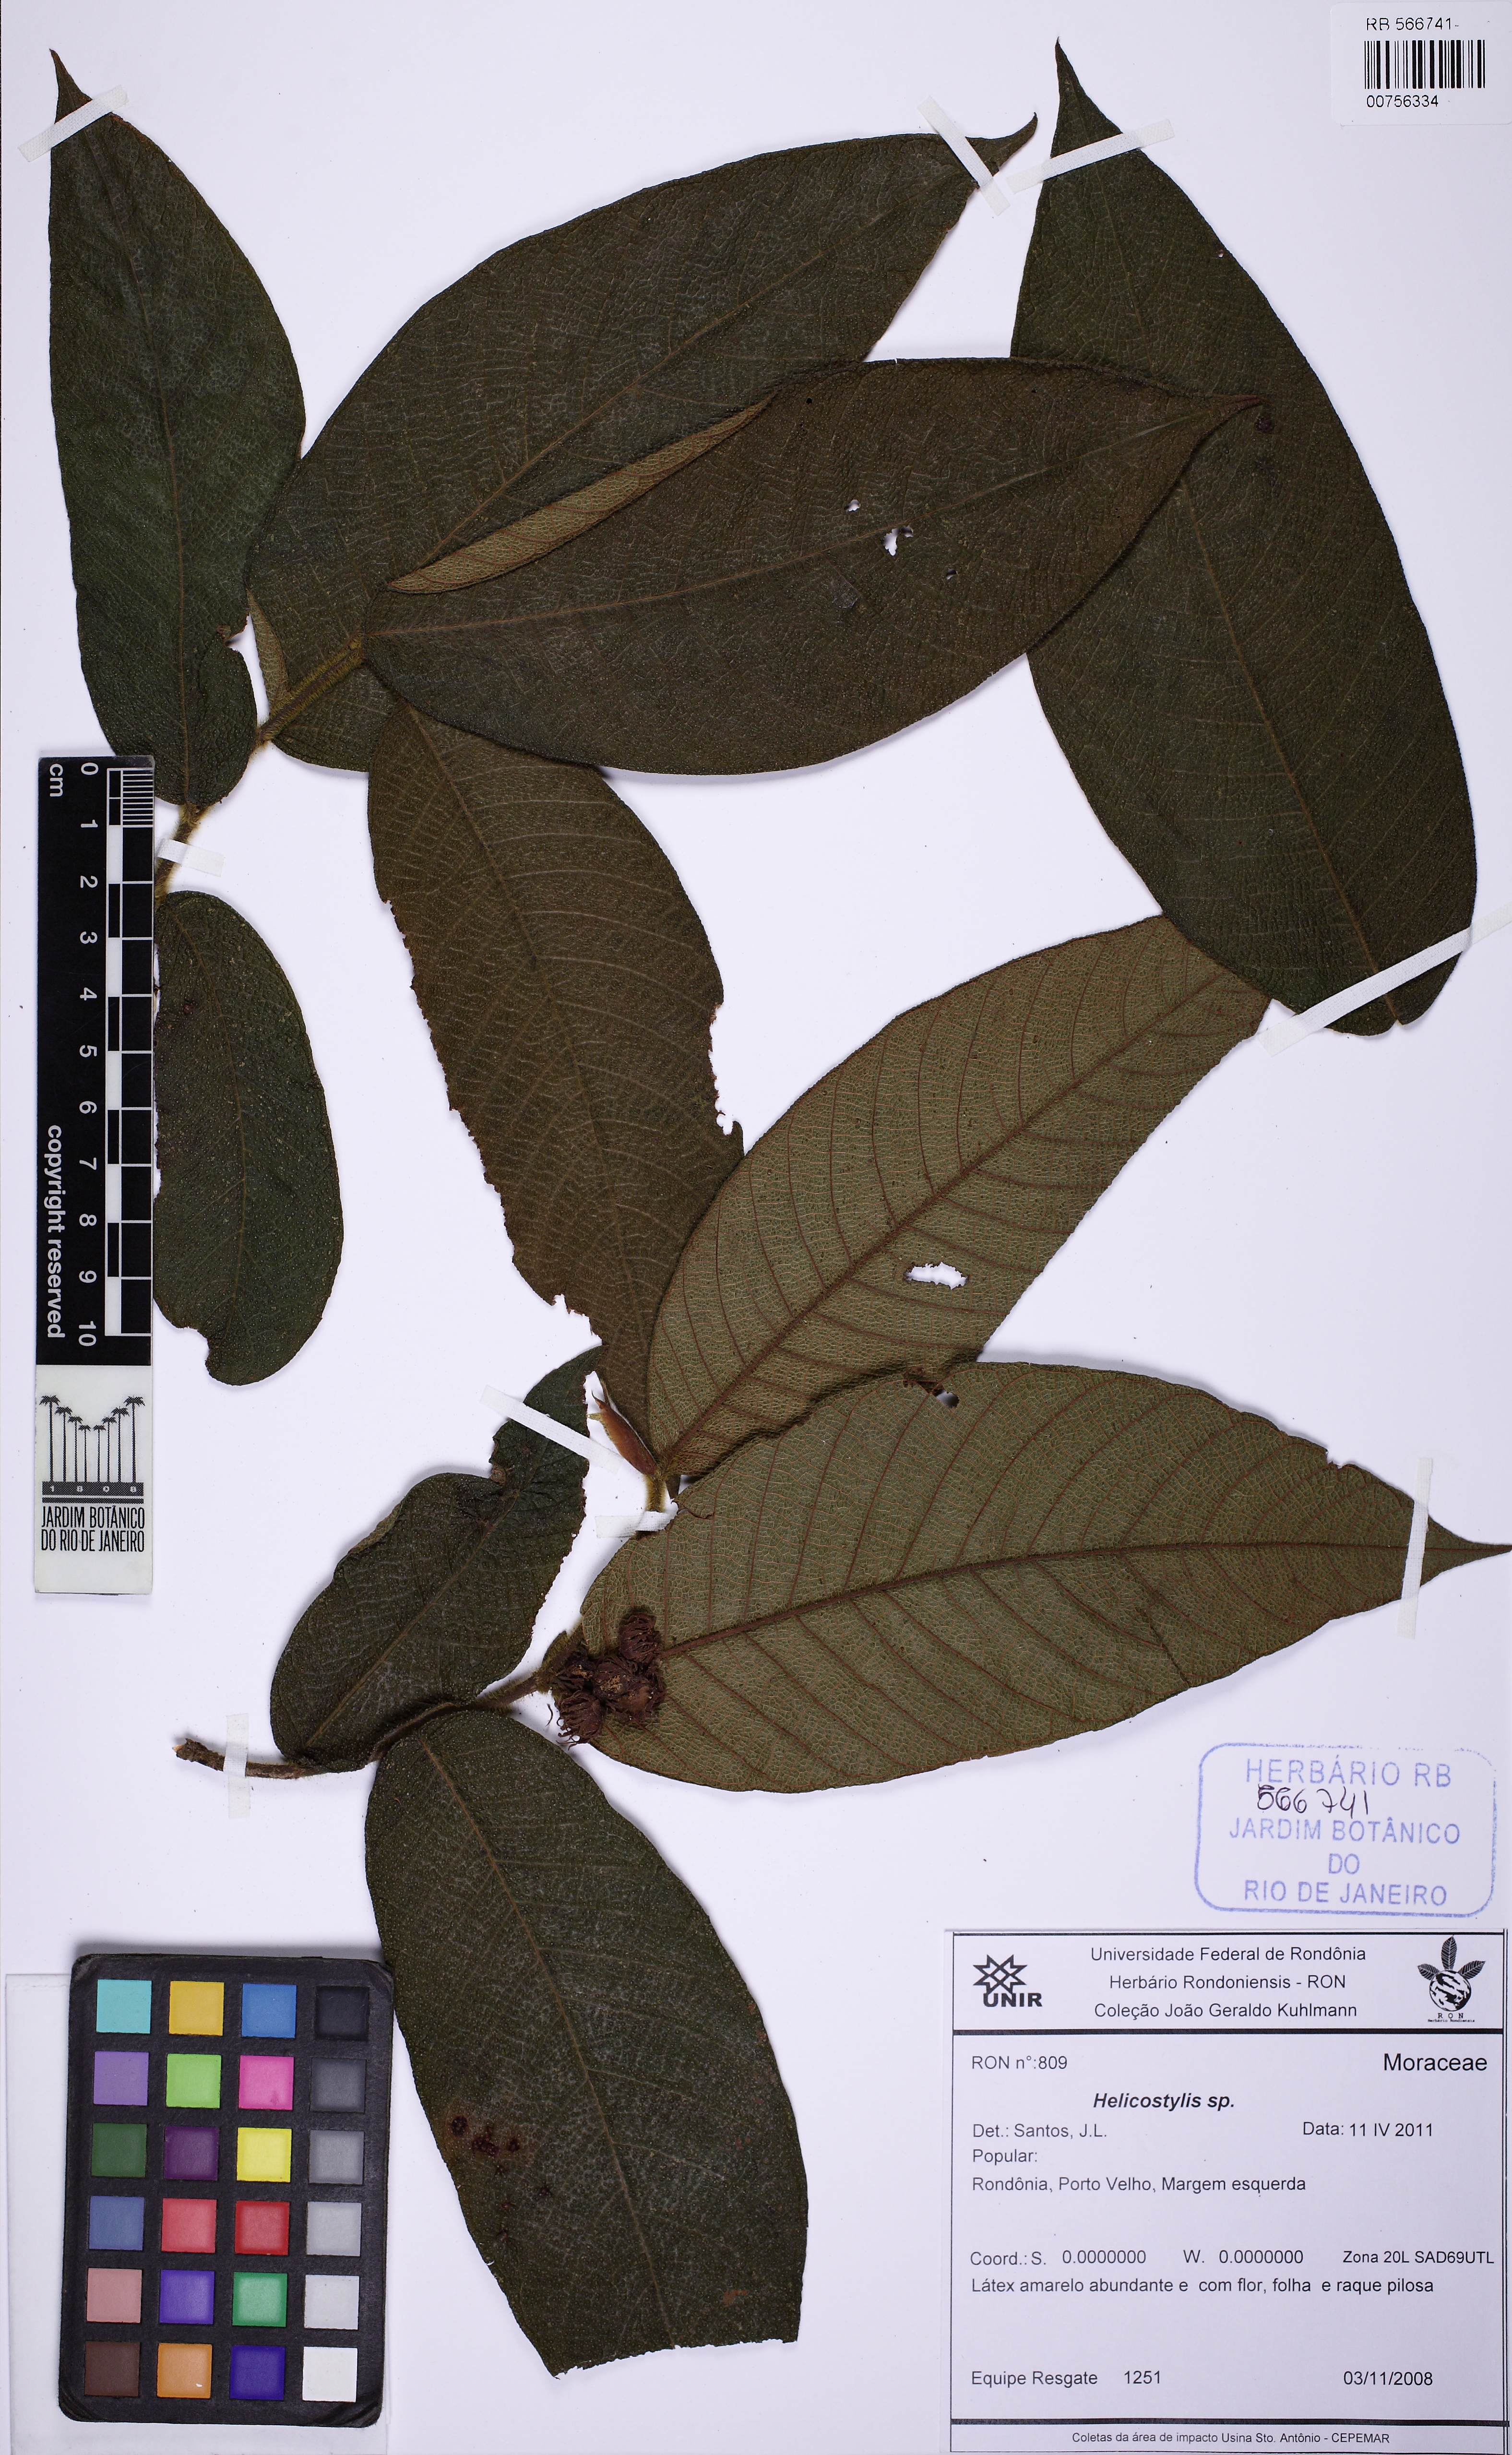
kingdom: Plantae
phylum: Tracheophyta
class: Magnoliopsida
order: Rosales
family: Moraceae
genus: Helicostylis
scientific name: Helicostylis
